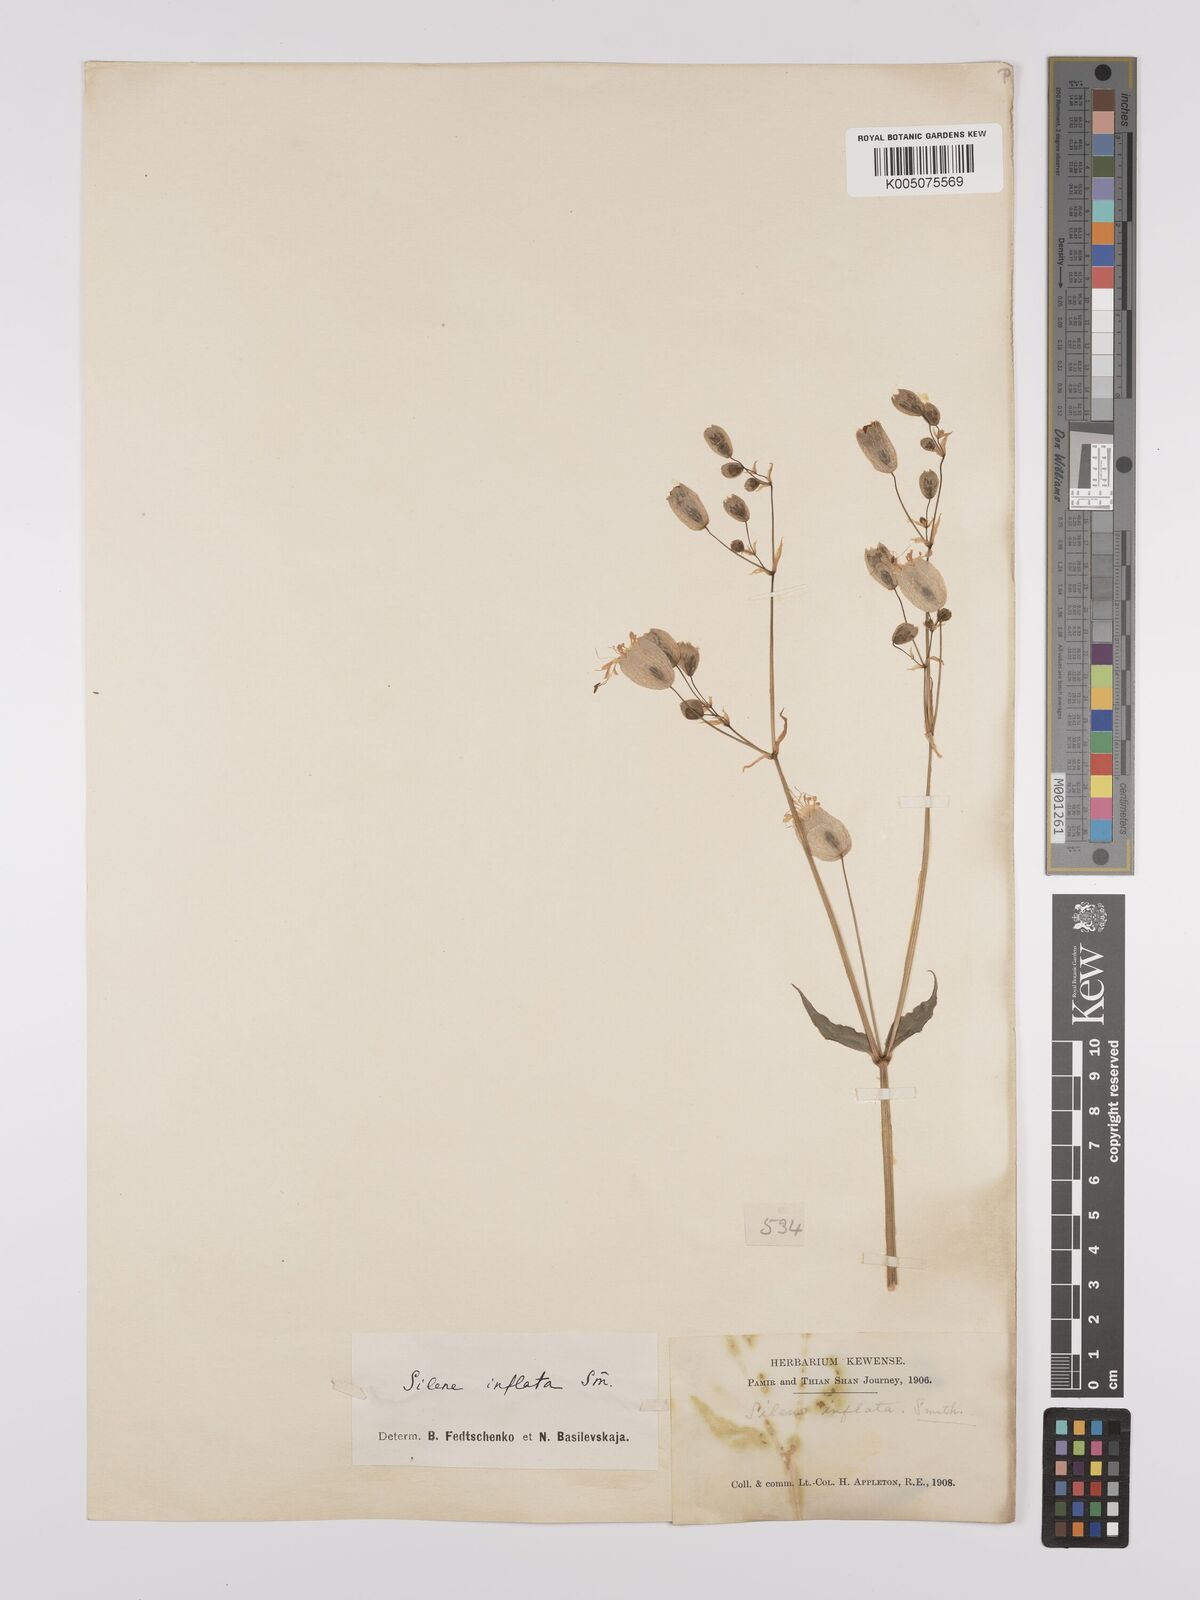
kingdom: Plantae
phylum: Tracheophyta
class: Magnoliopsida
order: Caryophyllales
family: Caryophyllaceae
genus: Silene
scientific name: Silene vulgaris
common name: Bladder campion
